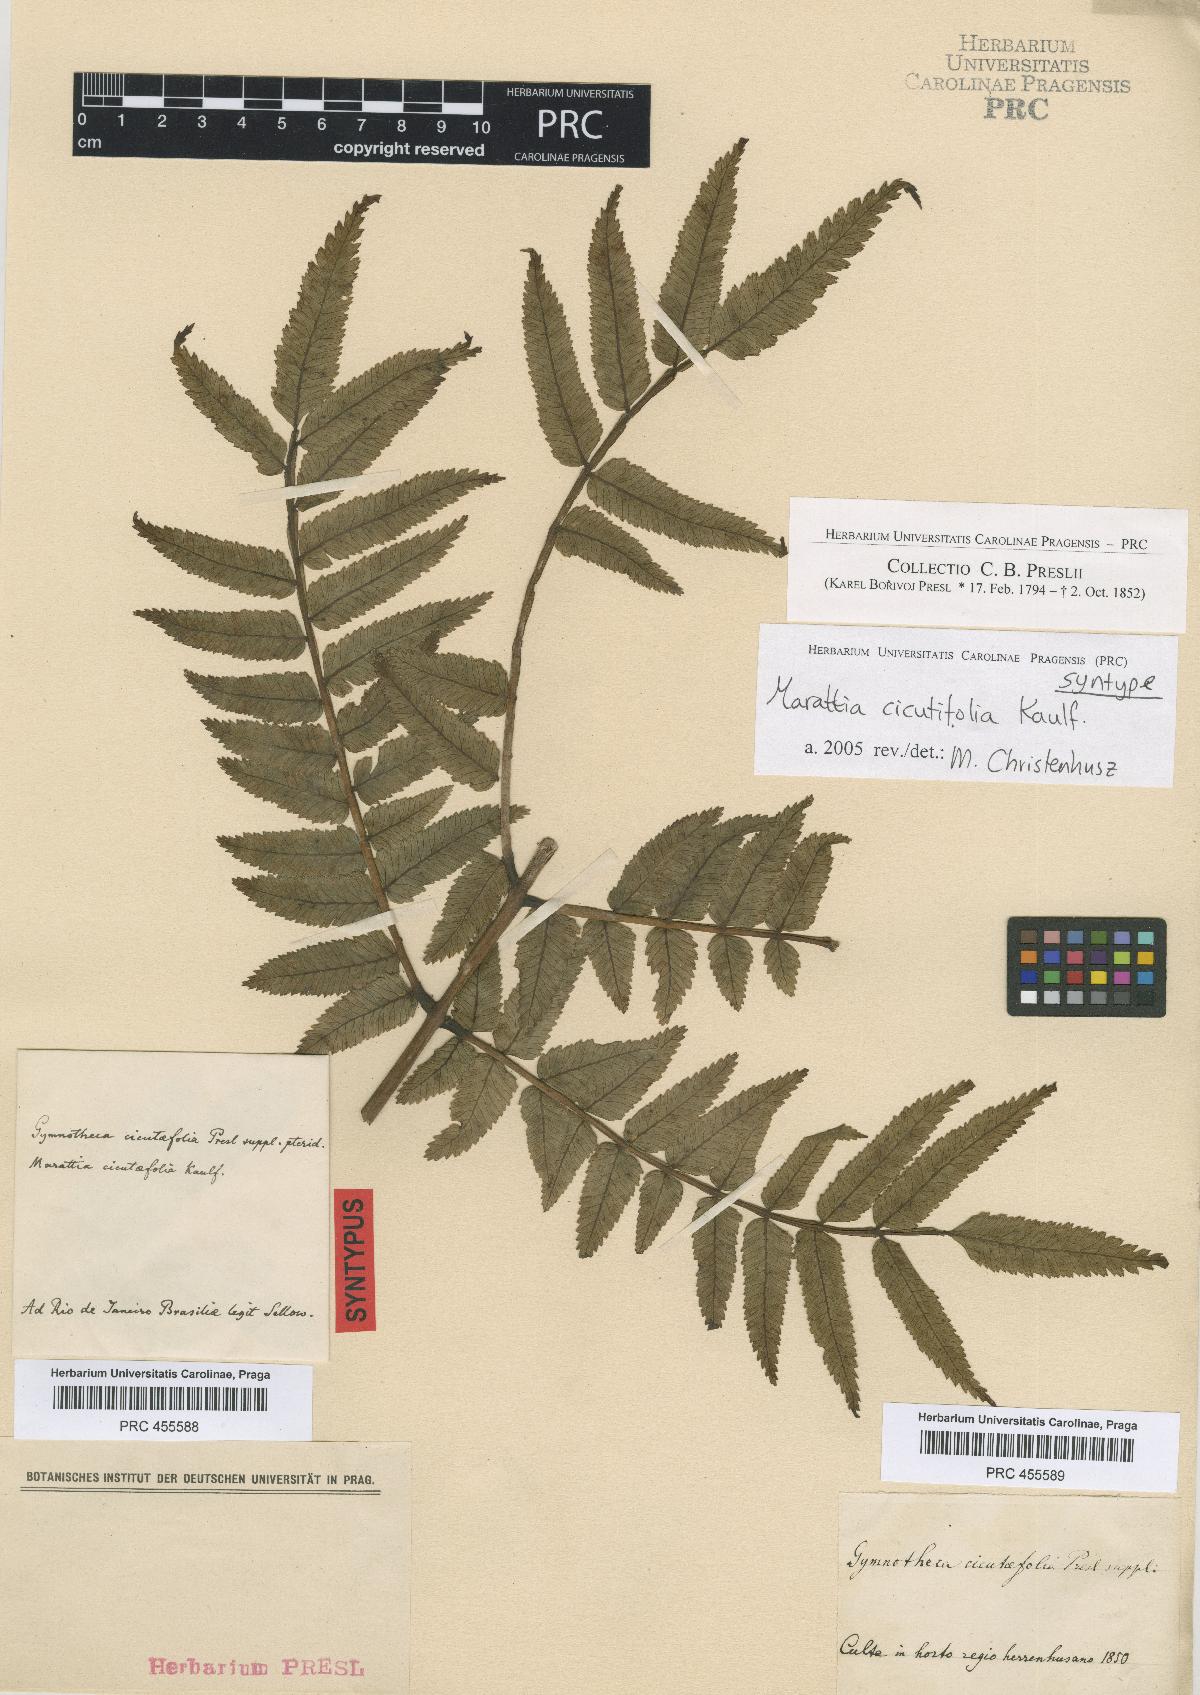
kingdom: Plantae
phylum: Tracheophyta
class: Polypodiopsida
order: Marattiales
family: Marattiaceae
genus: Eupodium
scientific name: Eupodium cicutifolium
